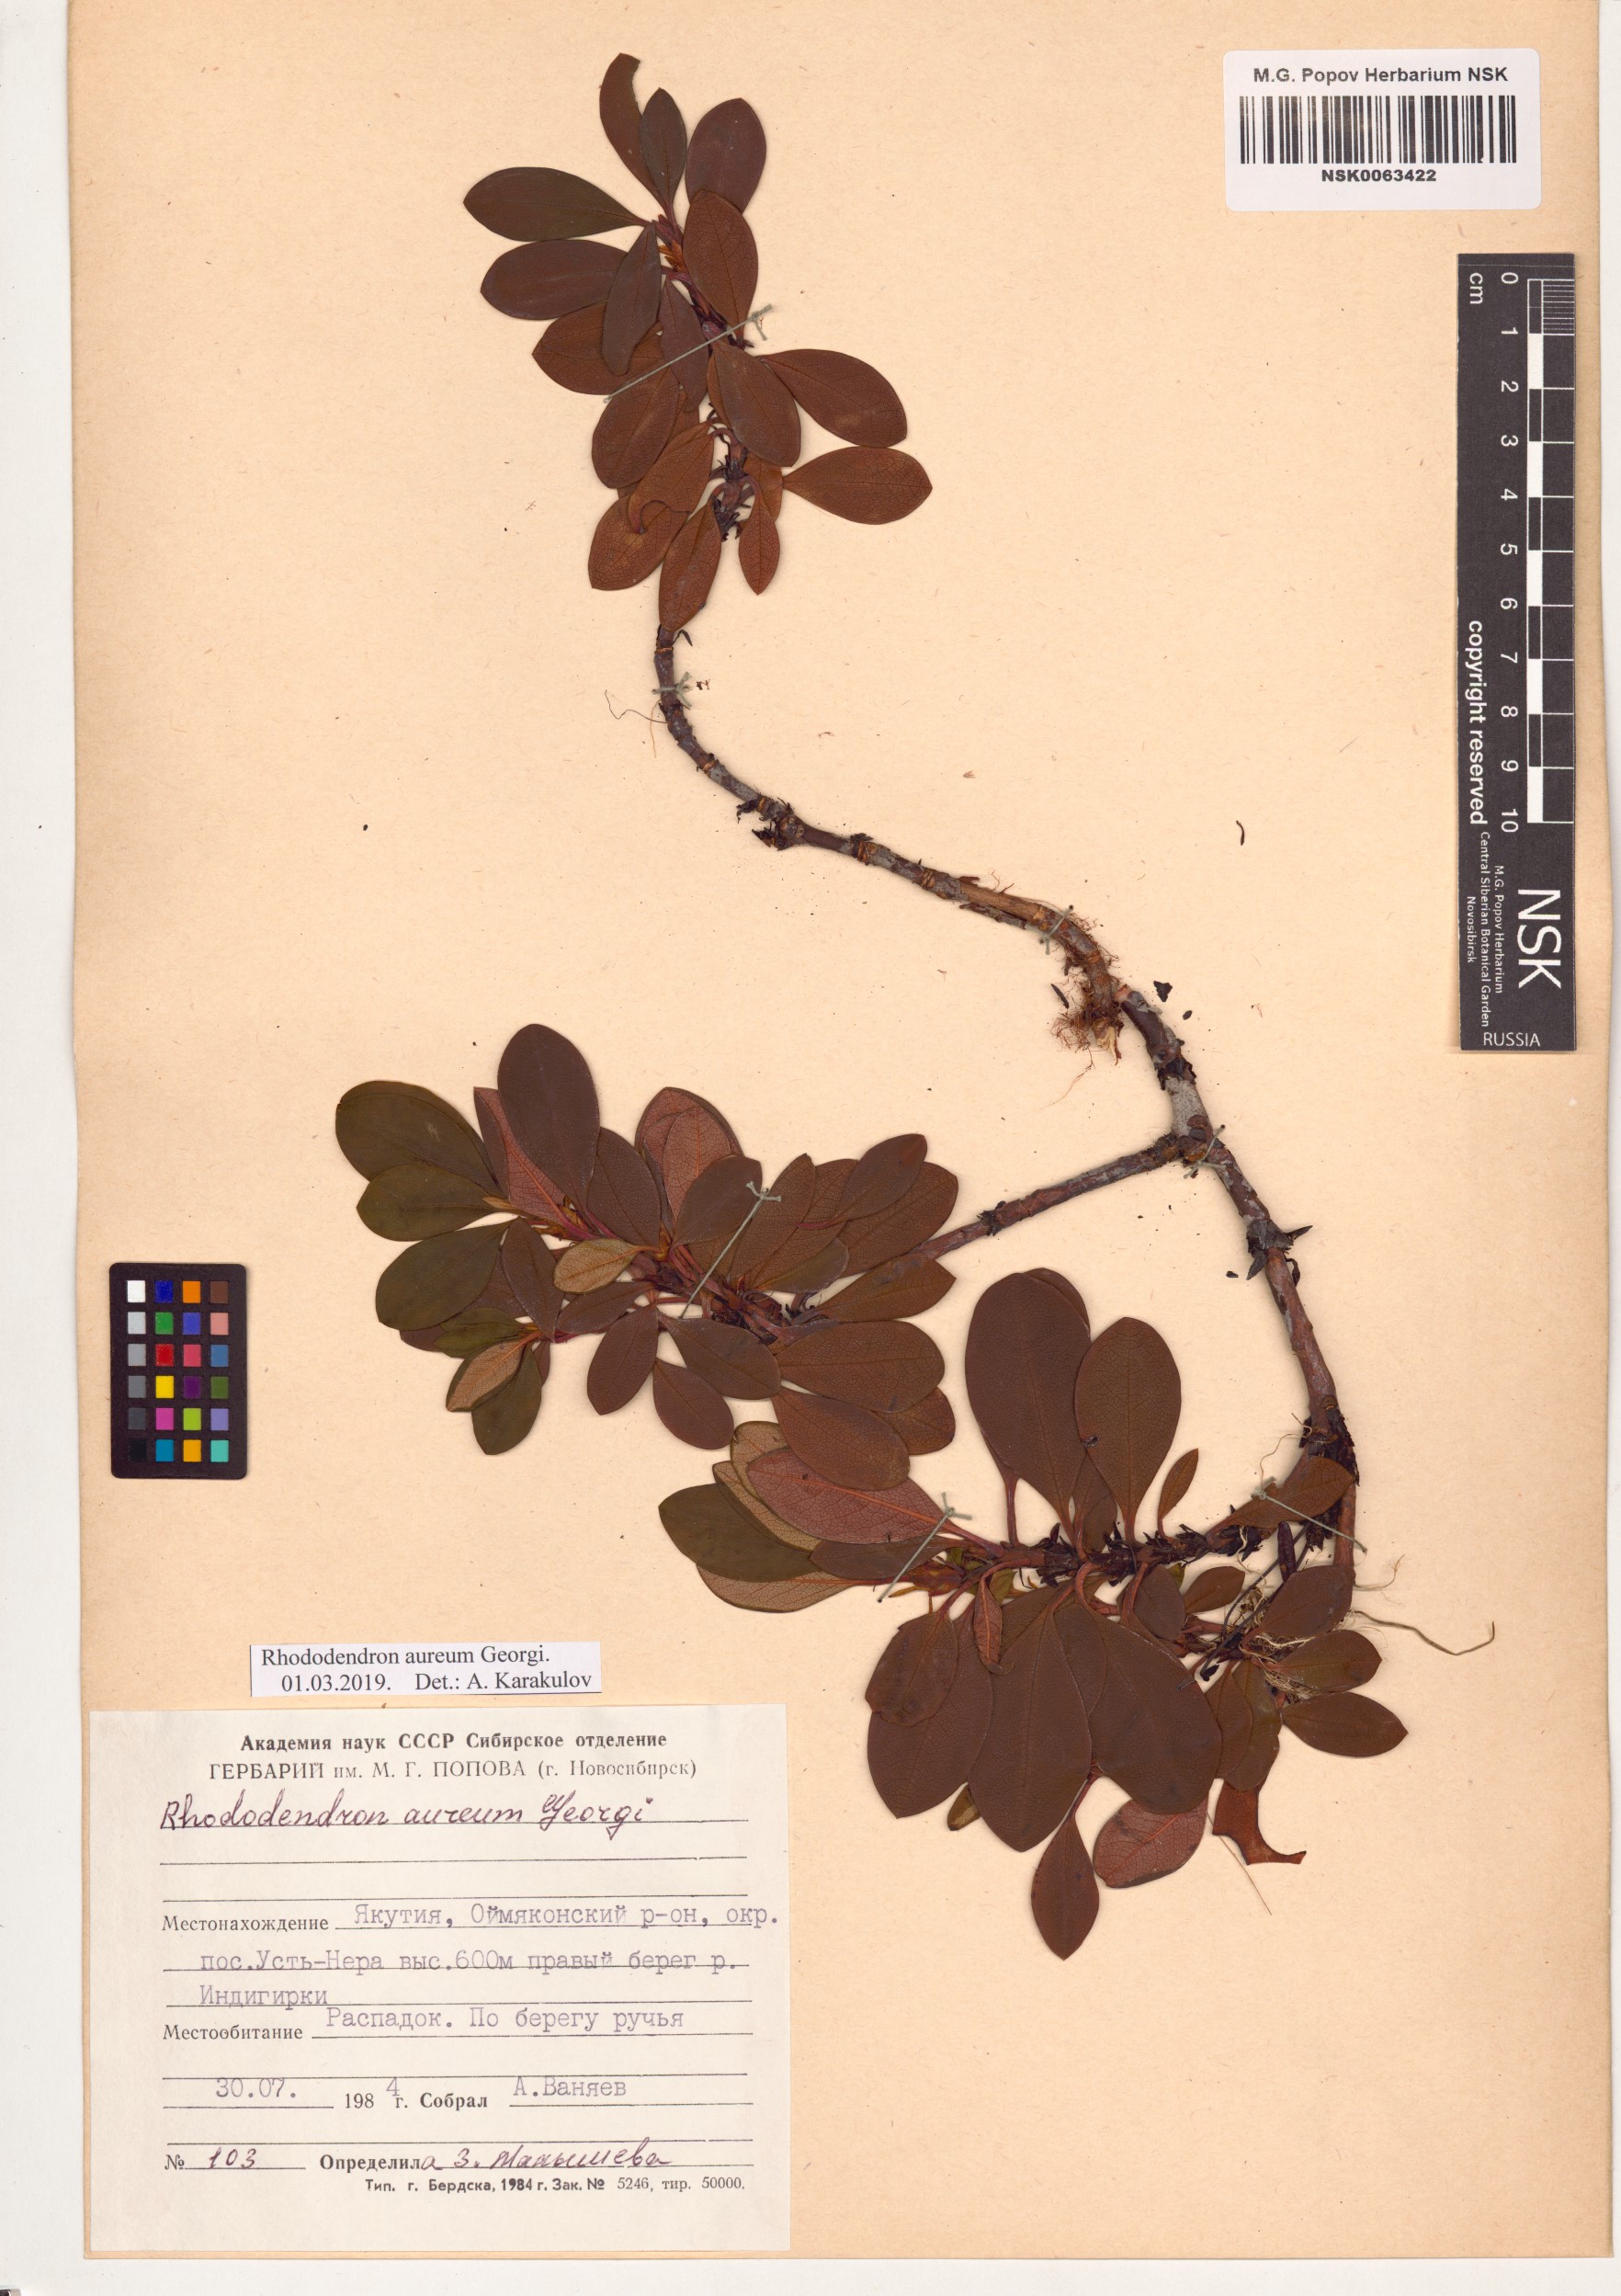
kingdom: Plantae
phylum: Tracheophyta
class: Magnoliopsida
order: Ericales
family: Ericaceae
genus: Rhododendron
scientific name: Rhododendron aureum
